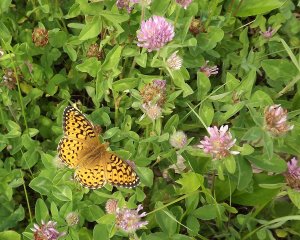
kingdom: Animalia
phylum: Arthropoda
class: Insecta
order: Lepidoptera
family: Nymphalidae
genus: Speyeria
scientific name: Speyeria atlantis
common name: Northwestern Fritillary
